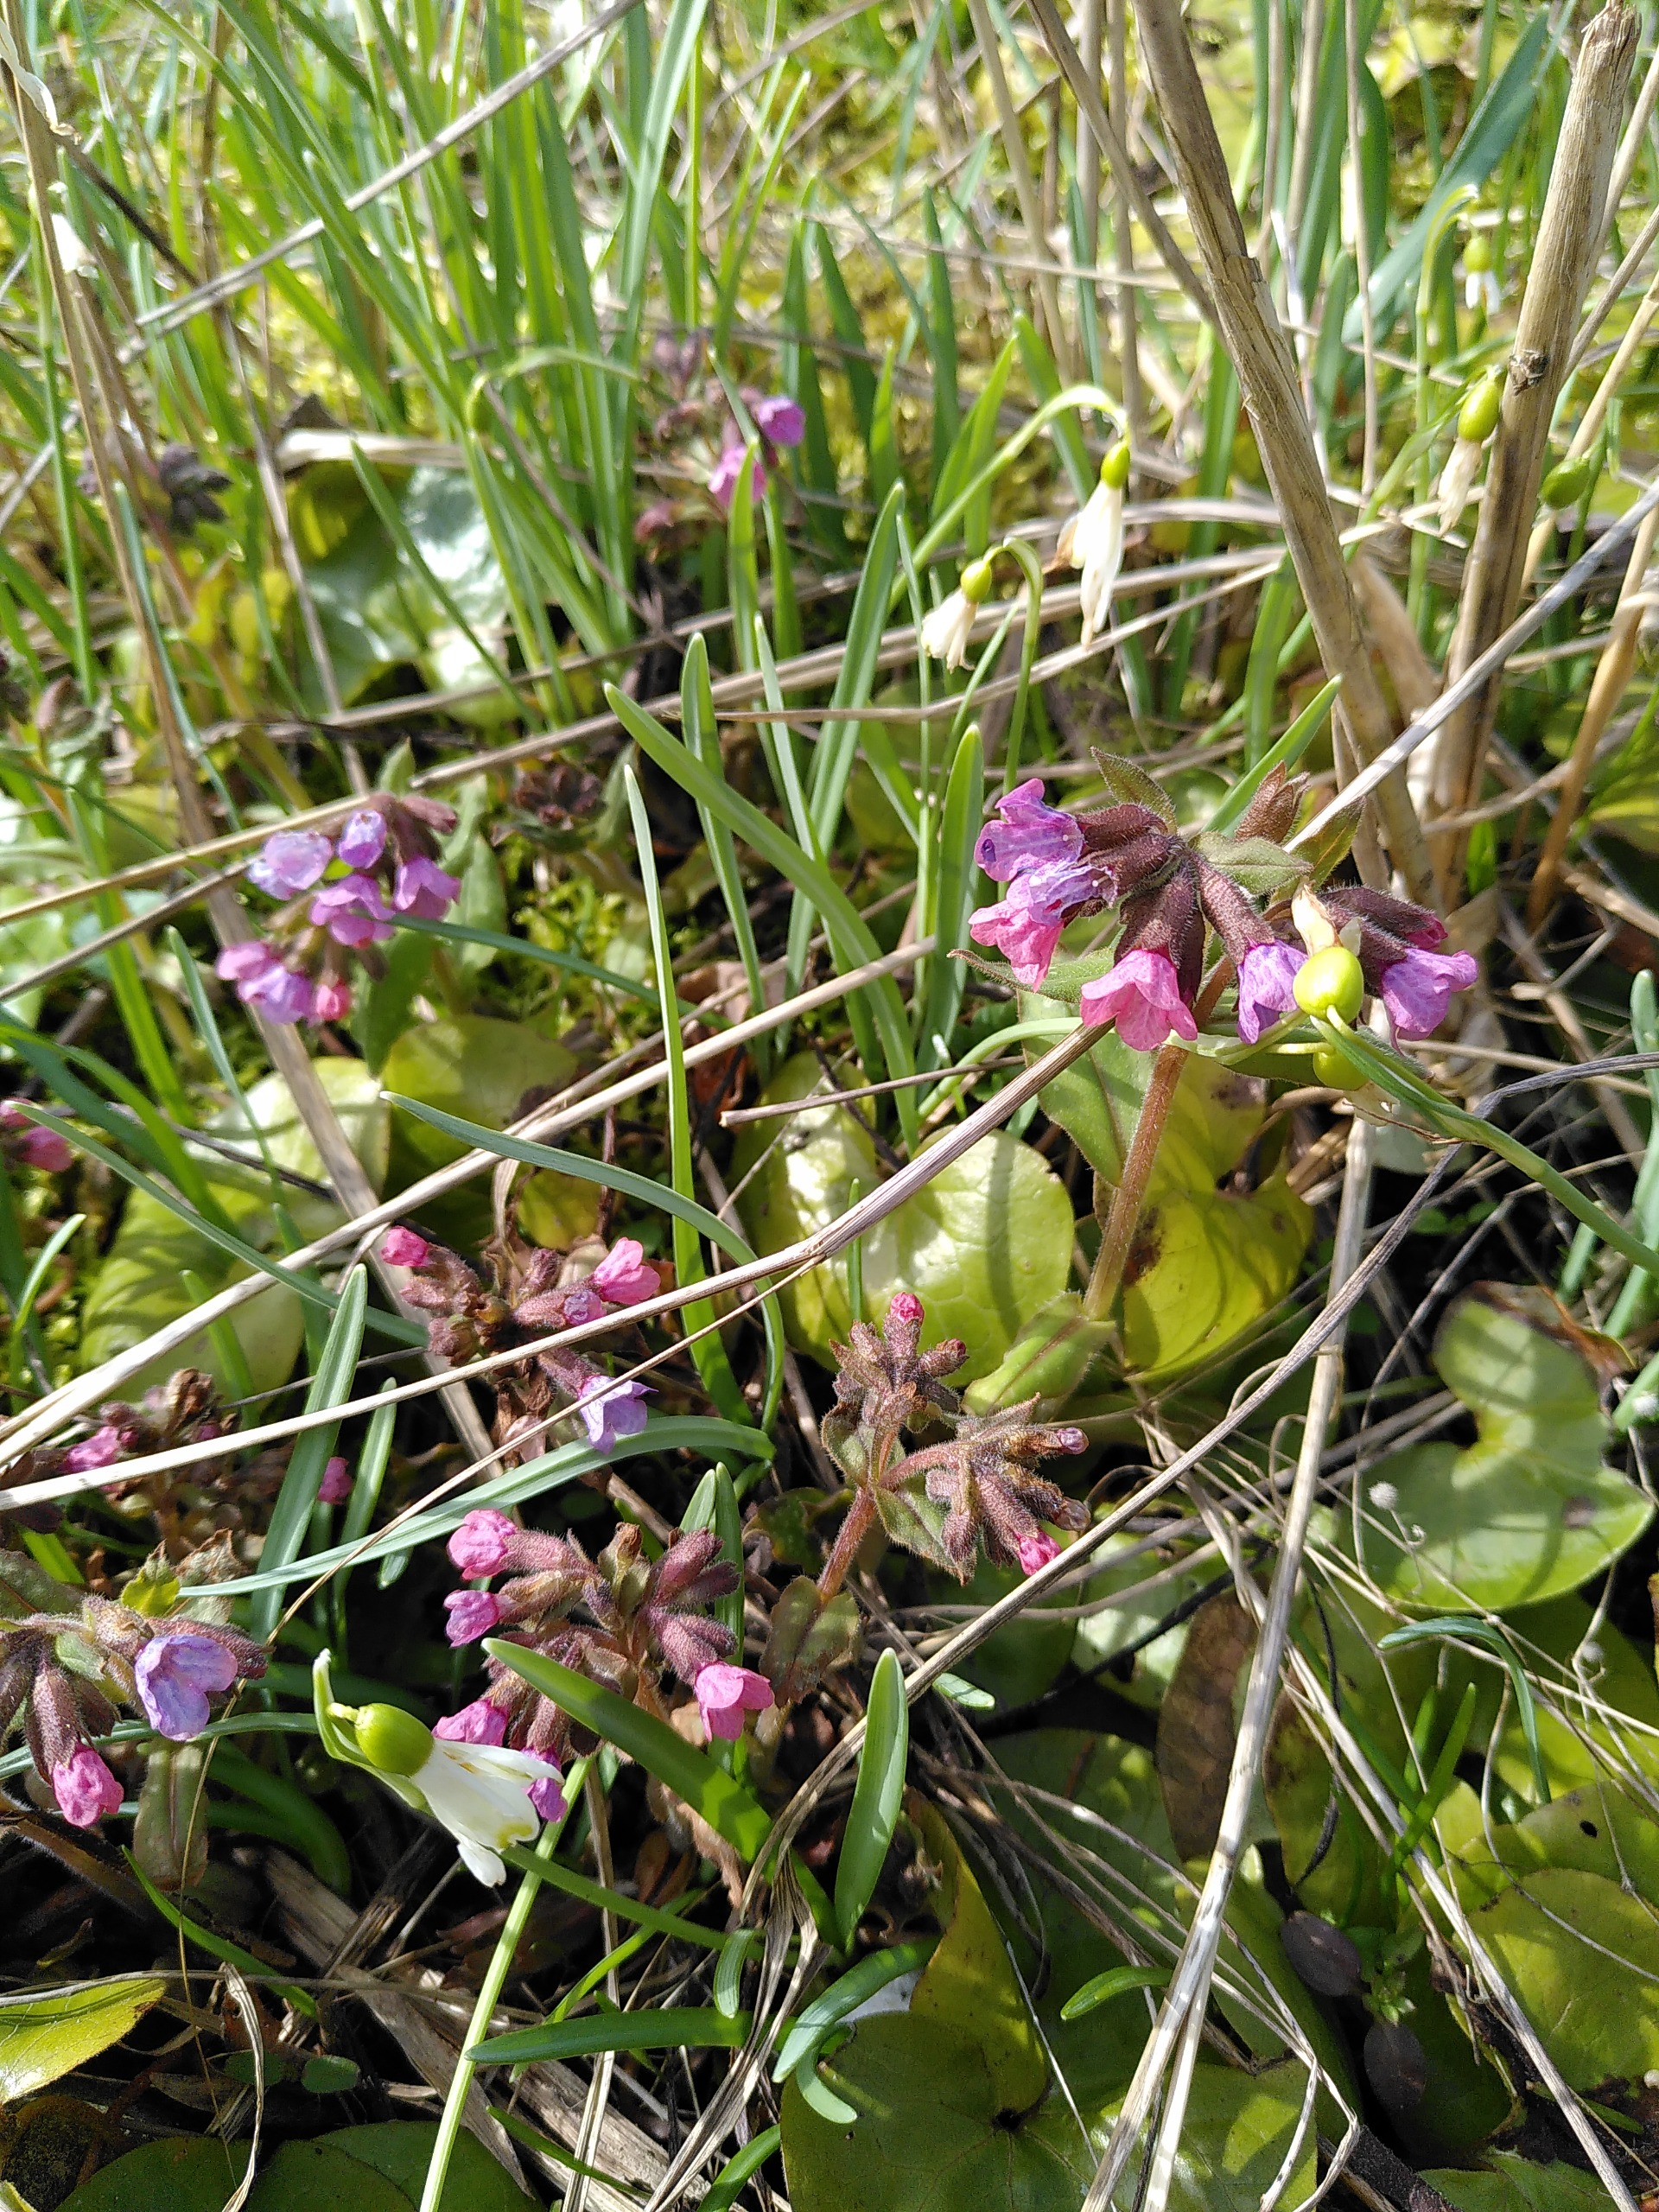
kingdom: Plantae
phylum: Tracheophyta
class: Magnoliopsida
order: Boraginales
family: Boraginaceae
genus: Pulmonaria
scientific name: Pulmonaria obscura
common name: Almindelig lungeurt
